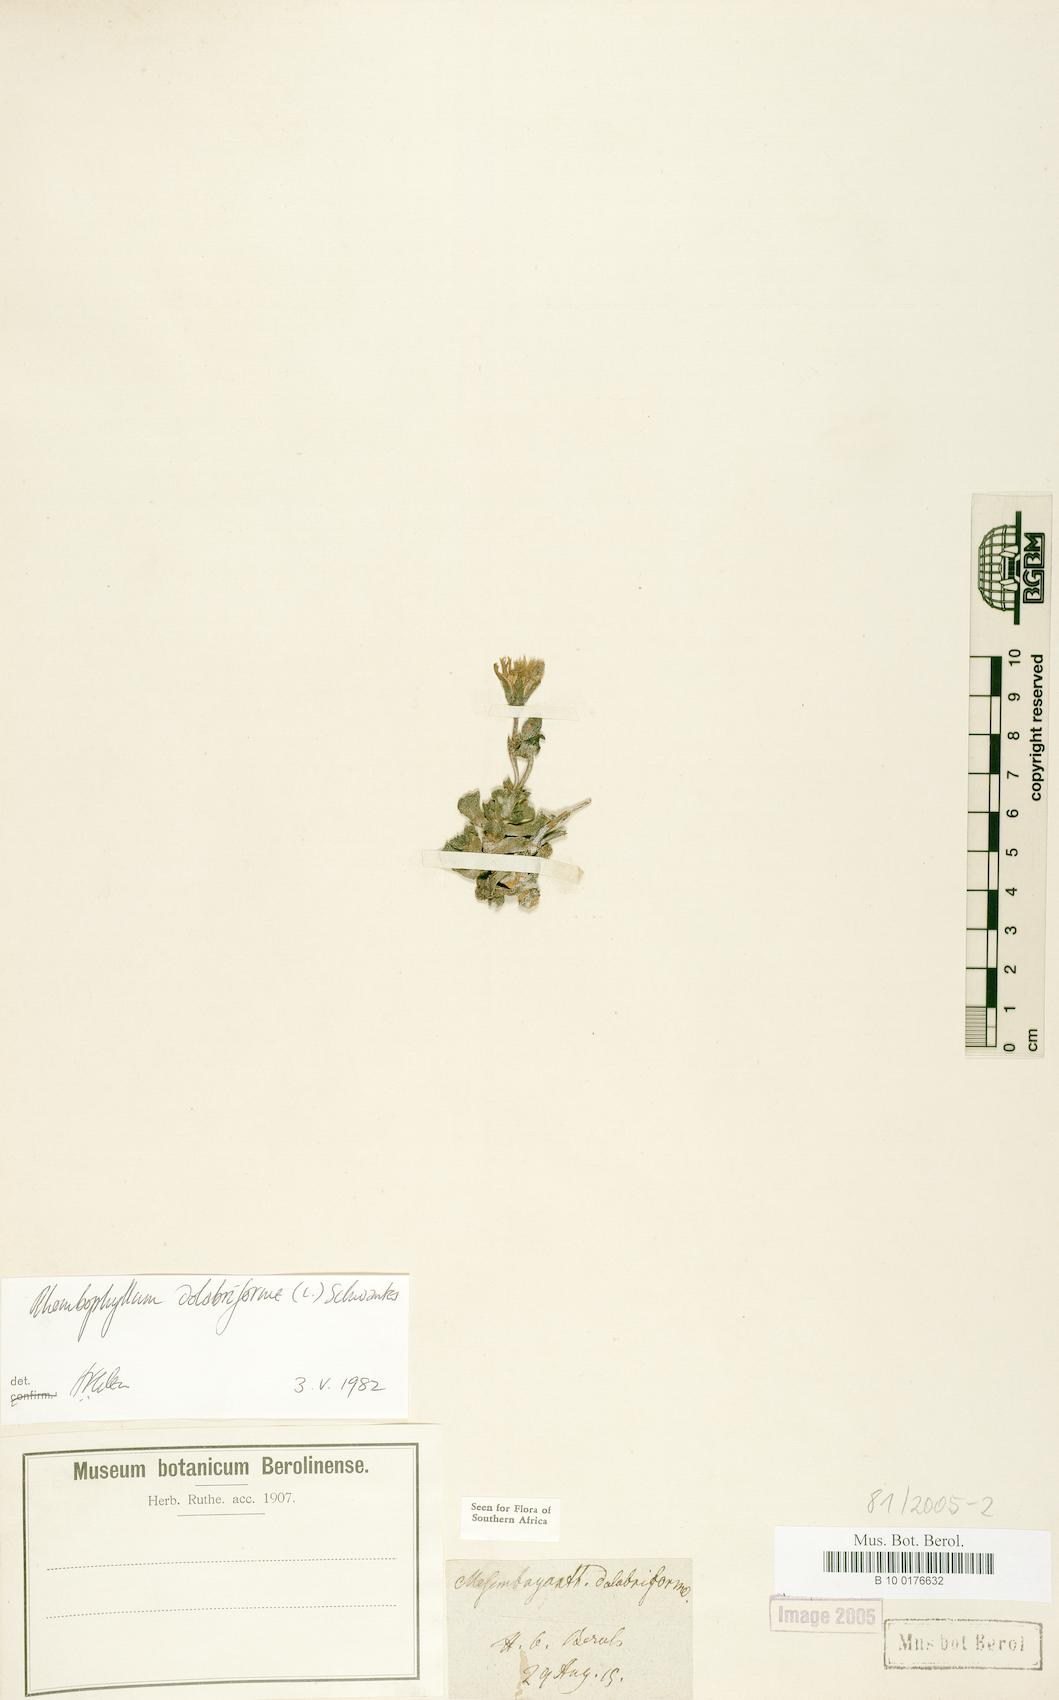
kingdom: Plantae
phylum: Tracheophyta
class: Magnoliopsida
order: Caryophyllales
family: Aizoaceae
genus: Dracophilus
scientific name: Dracophilus Rhombophyllum dolabriforme
